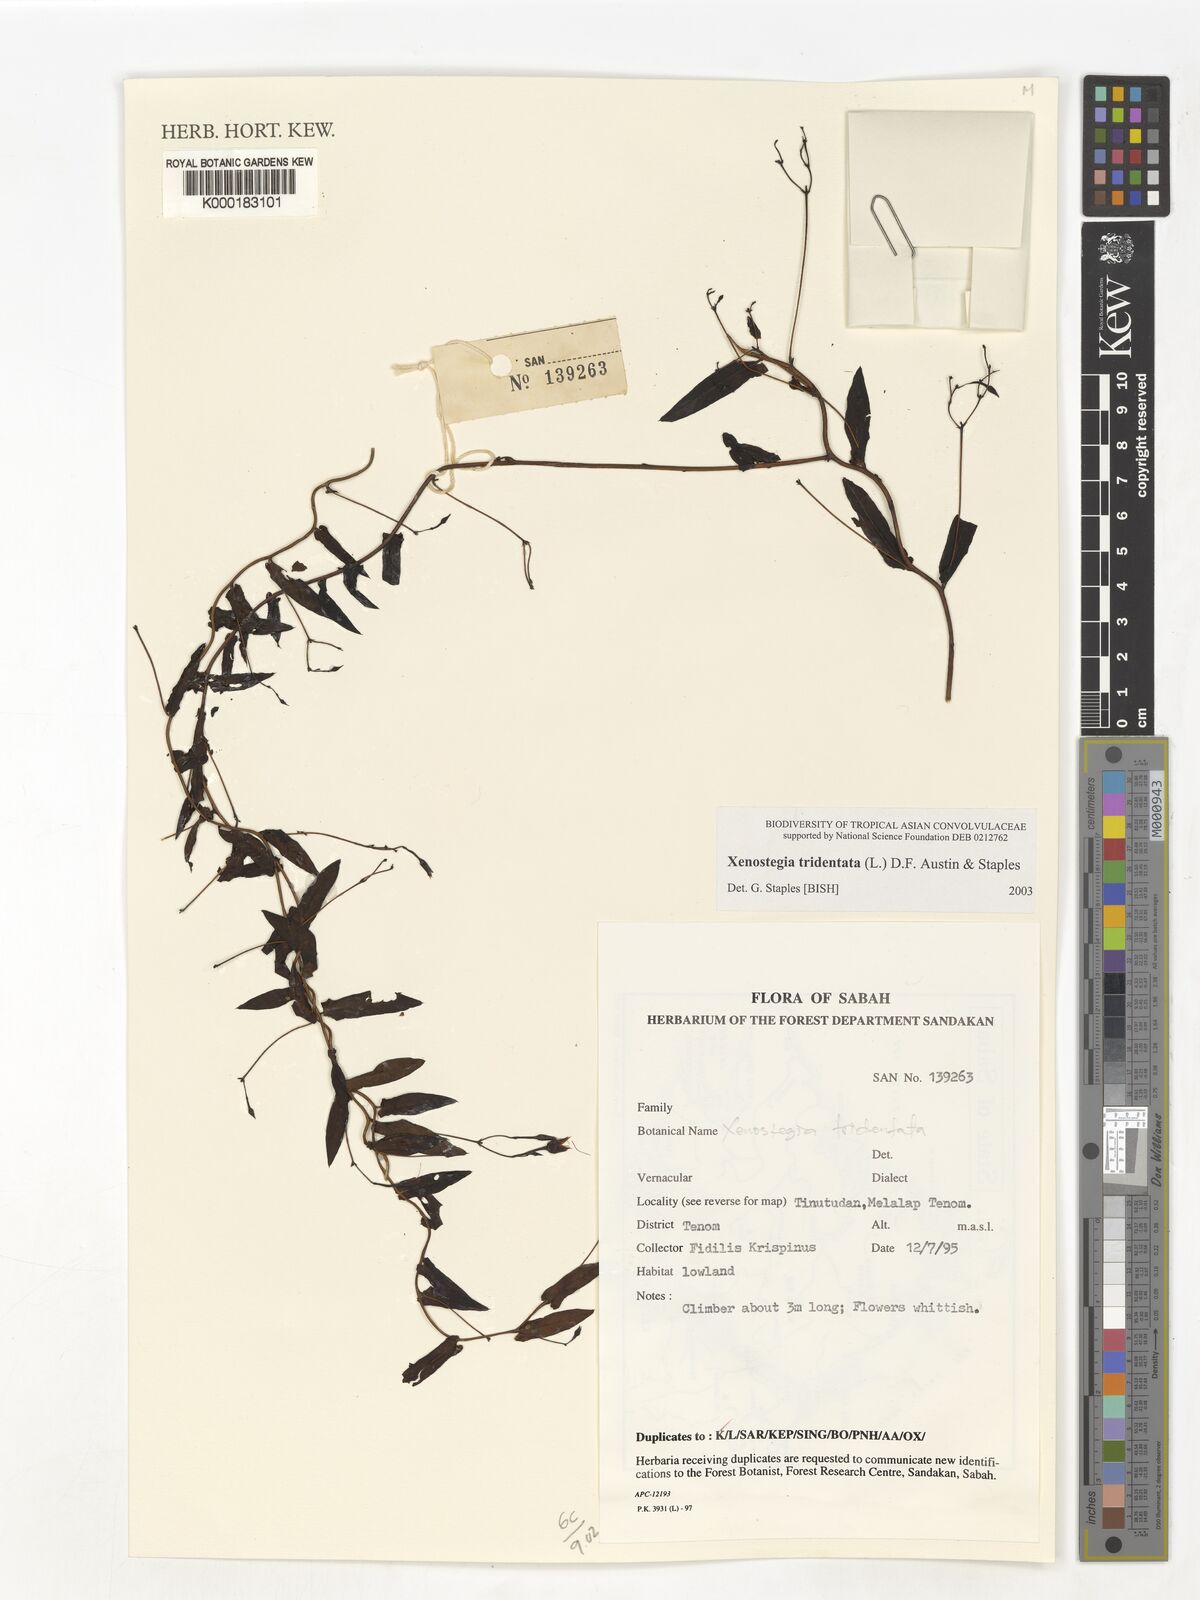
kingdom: Plantae
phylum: Tracheophyta
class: Magnoliopsida
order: Solanales
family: Convolvulaceae
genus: Xenostegia
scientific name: Xenostegia tridentata
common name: African morningvine
